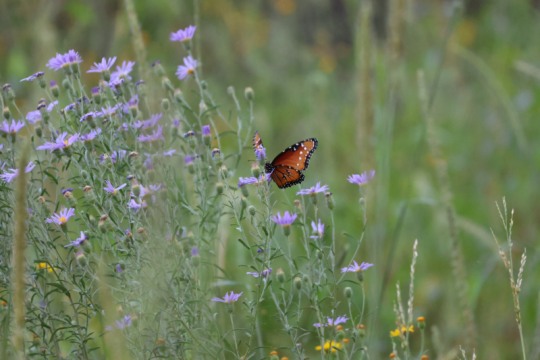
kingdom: Animalia
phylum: Arthropoda
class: Insecta
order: Lepidoptera
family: Nymphalidae
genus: Danaus
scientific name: Danaus gilippus
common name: Queen
